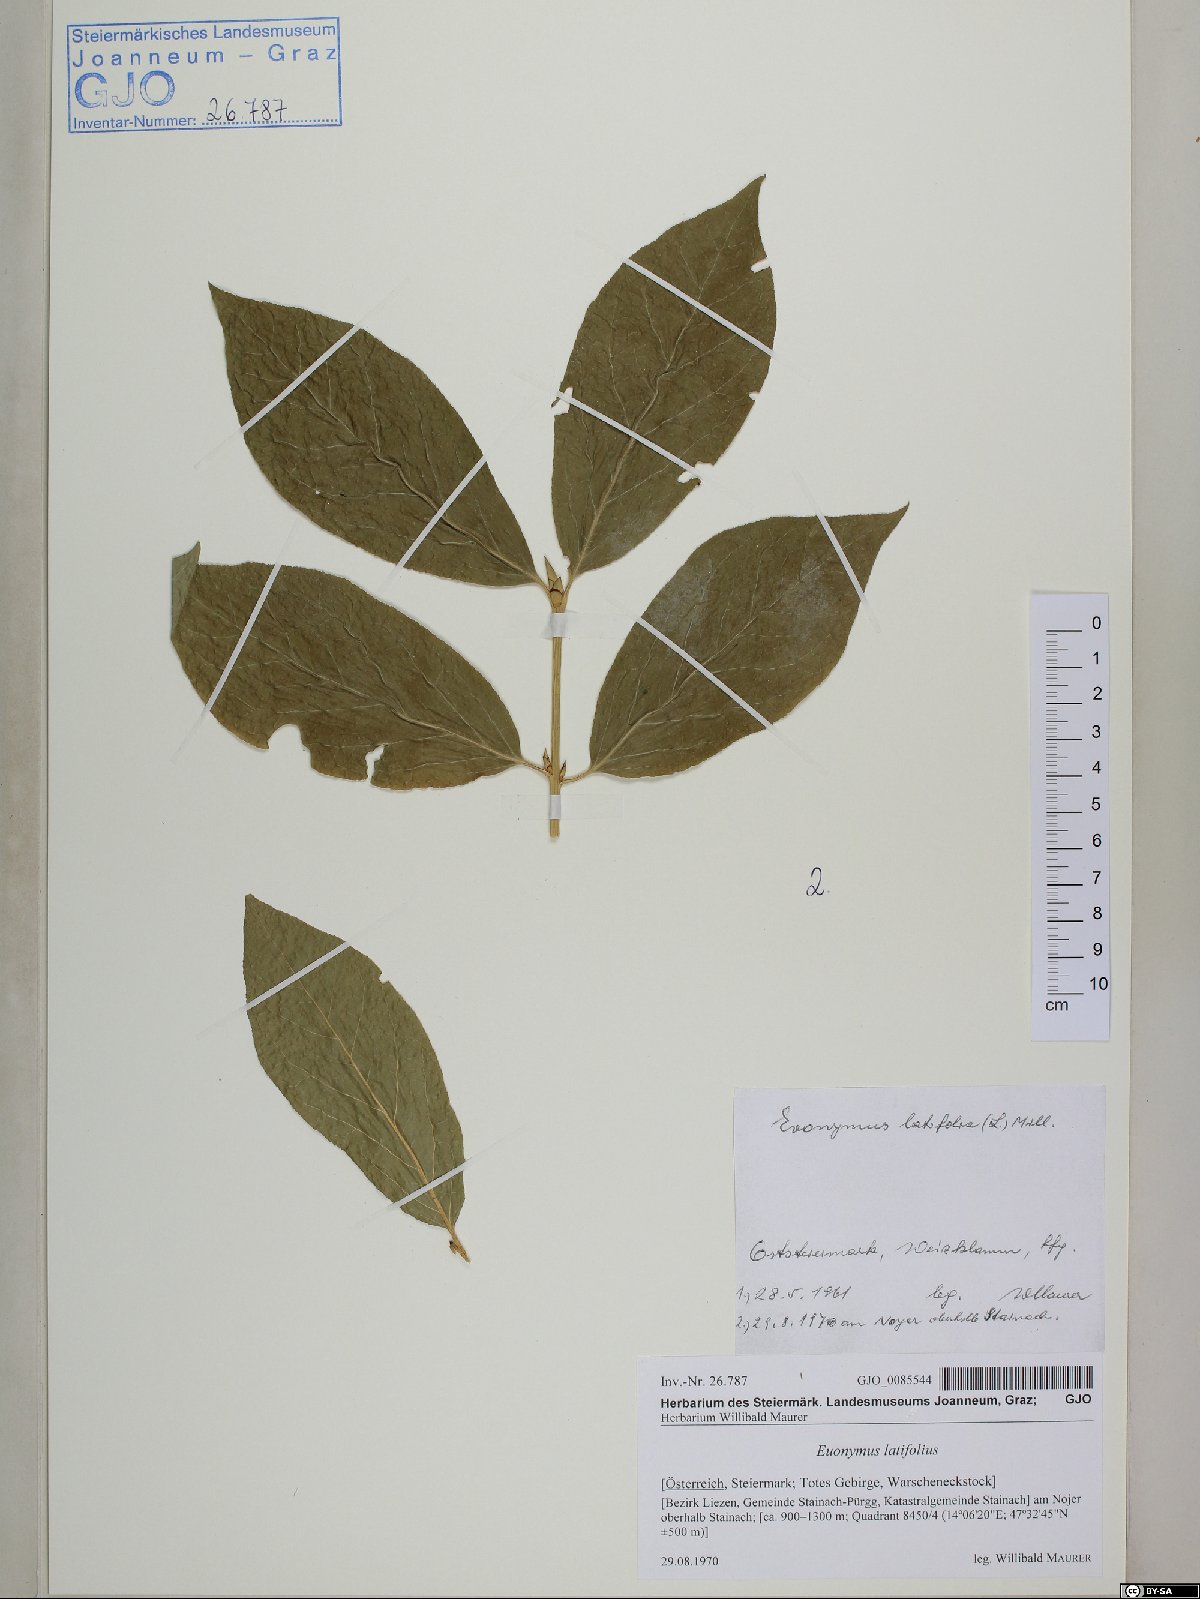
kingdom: Plantae
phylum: Tracheophyta
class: Magnoliopsida
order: Celastrales
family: Celastraceae
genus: Euonymus
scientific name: Euonymus latifolius
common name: Large-leaved spindle
